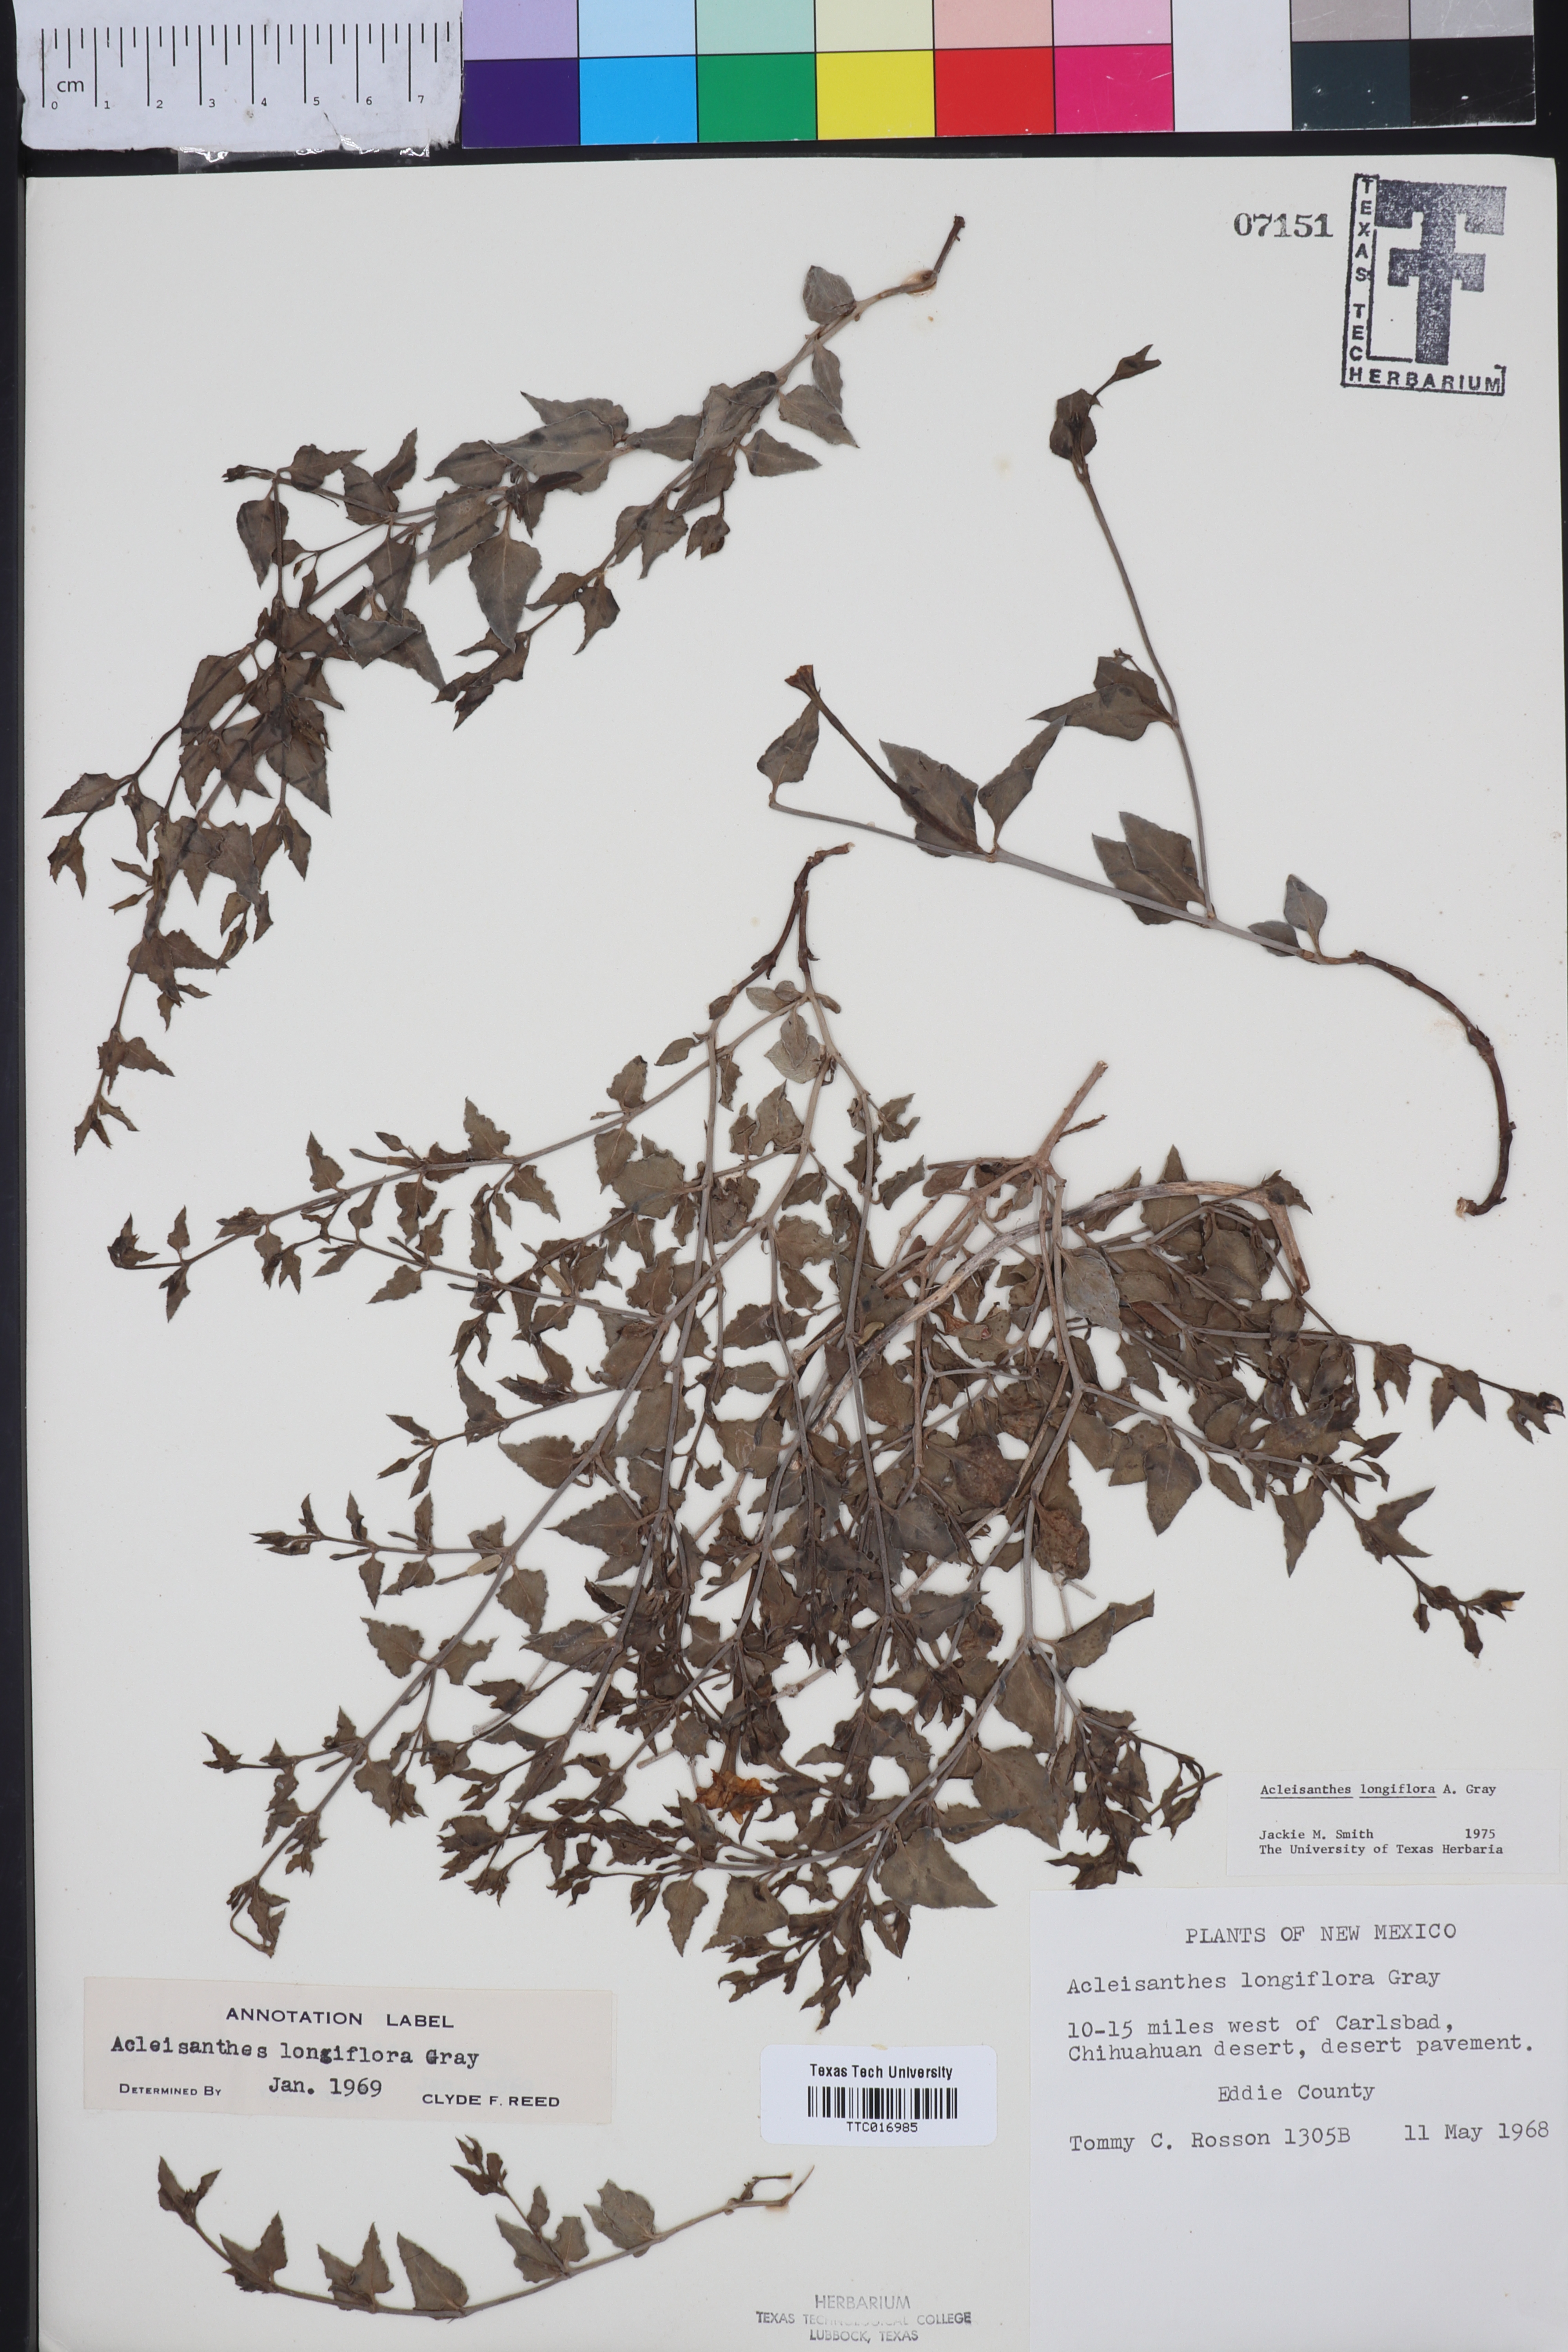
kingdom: Plantae
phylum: Tracheophyta
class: Magnoliopsida
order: Caryophyllales
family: Nyctaginaceae
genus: Acleisanthes
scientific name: Acleisanthes longiflora
